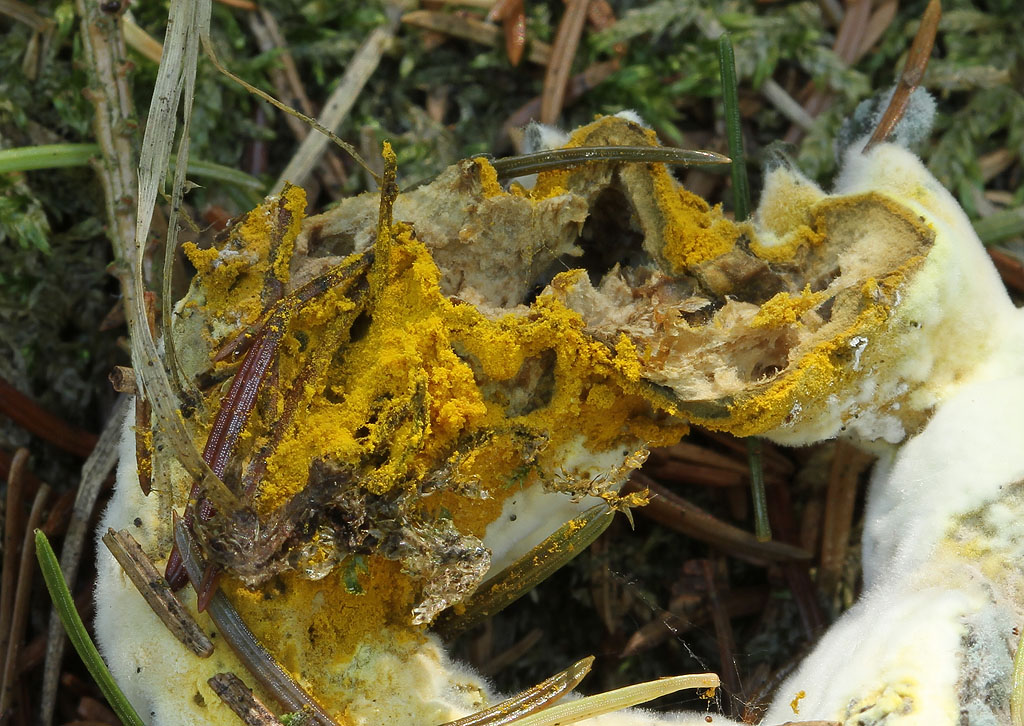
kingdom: Fungi
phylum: Ascomycota
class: Sordariomycetes
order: Hypocreales
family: Hypocreaceae
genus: Hypomyces
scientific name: Hypomyces microspermus
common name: dværgrørhat-snylteskorpe
